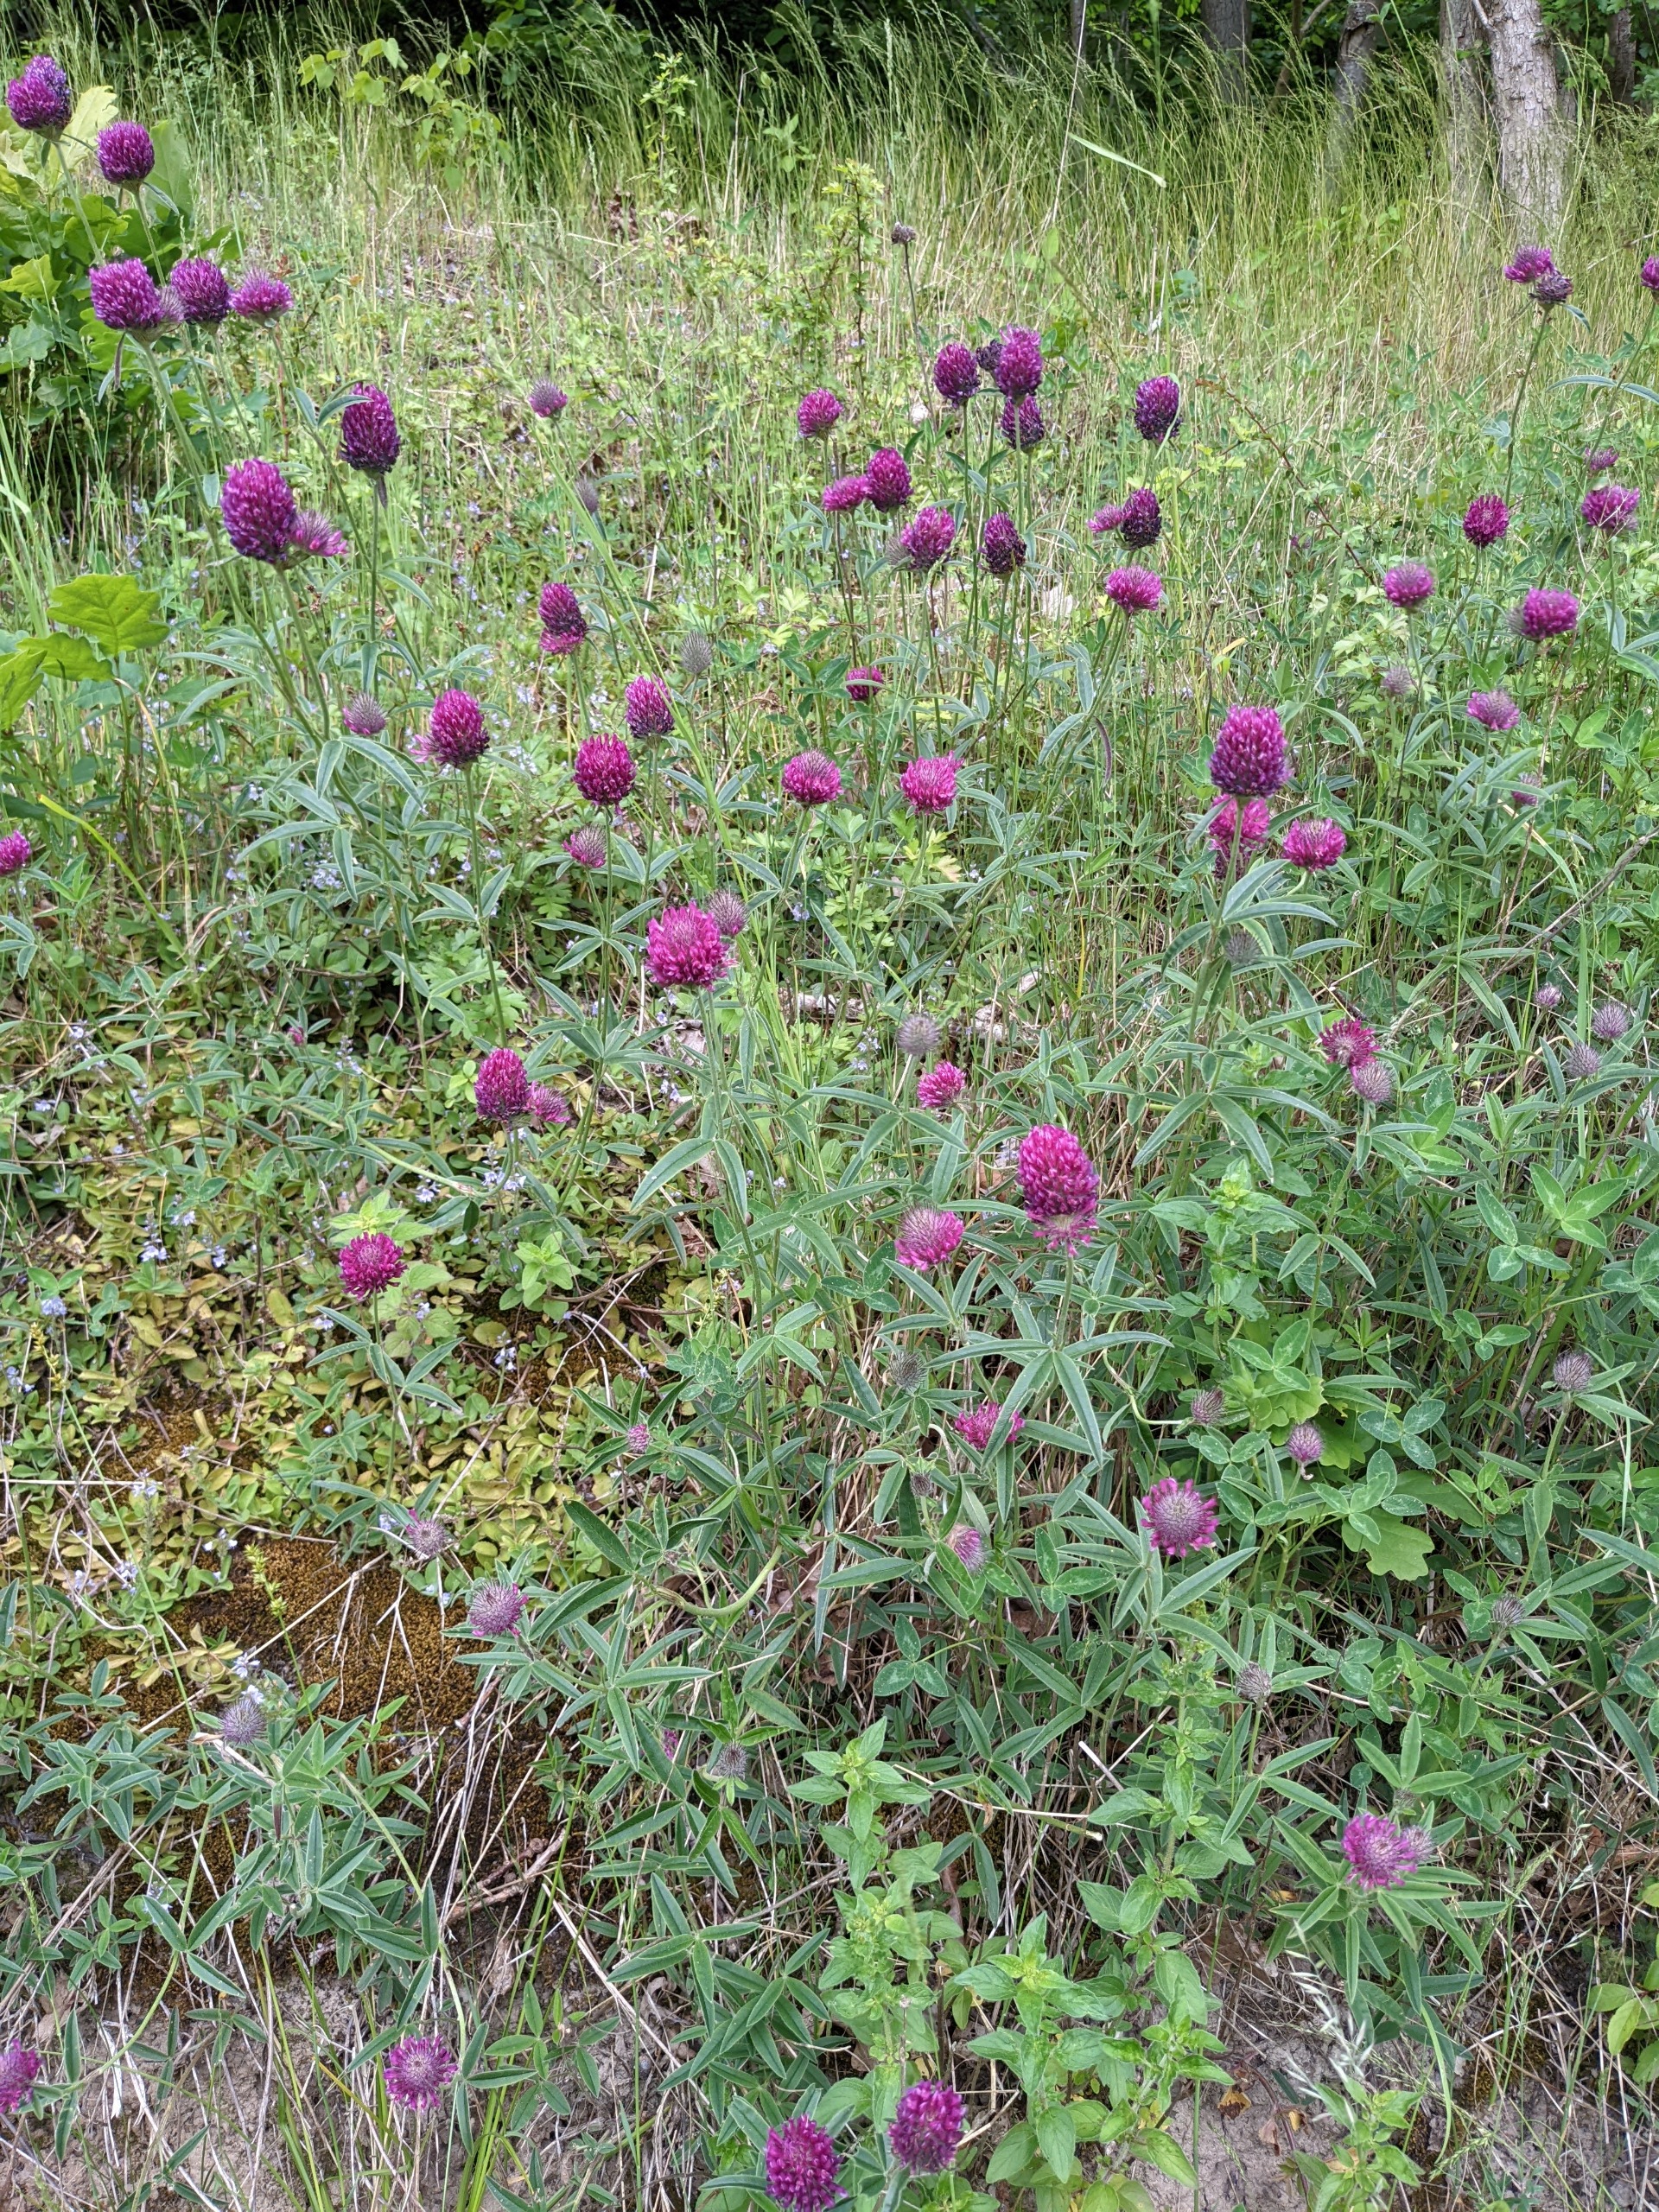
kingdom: Plantae
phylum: Tracheophyta
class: Magnoliopsida
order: Fabales
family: Fabaceae
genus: Trifolium
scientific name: Trifolium alpestre
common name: Skov-kløver
